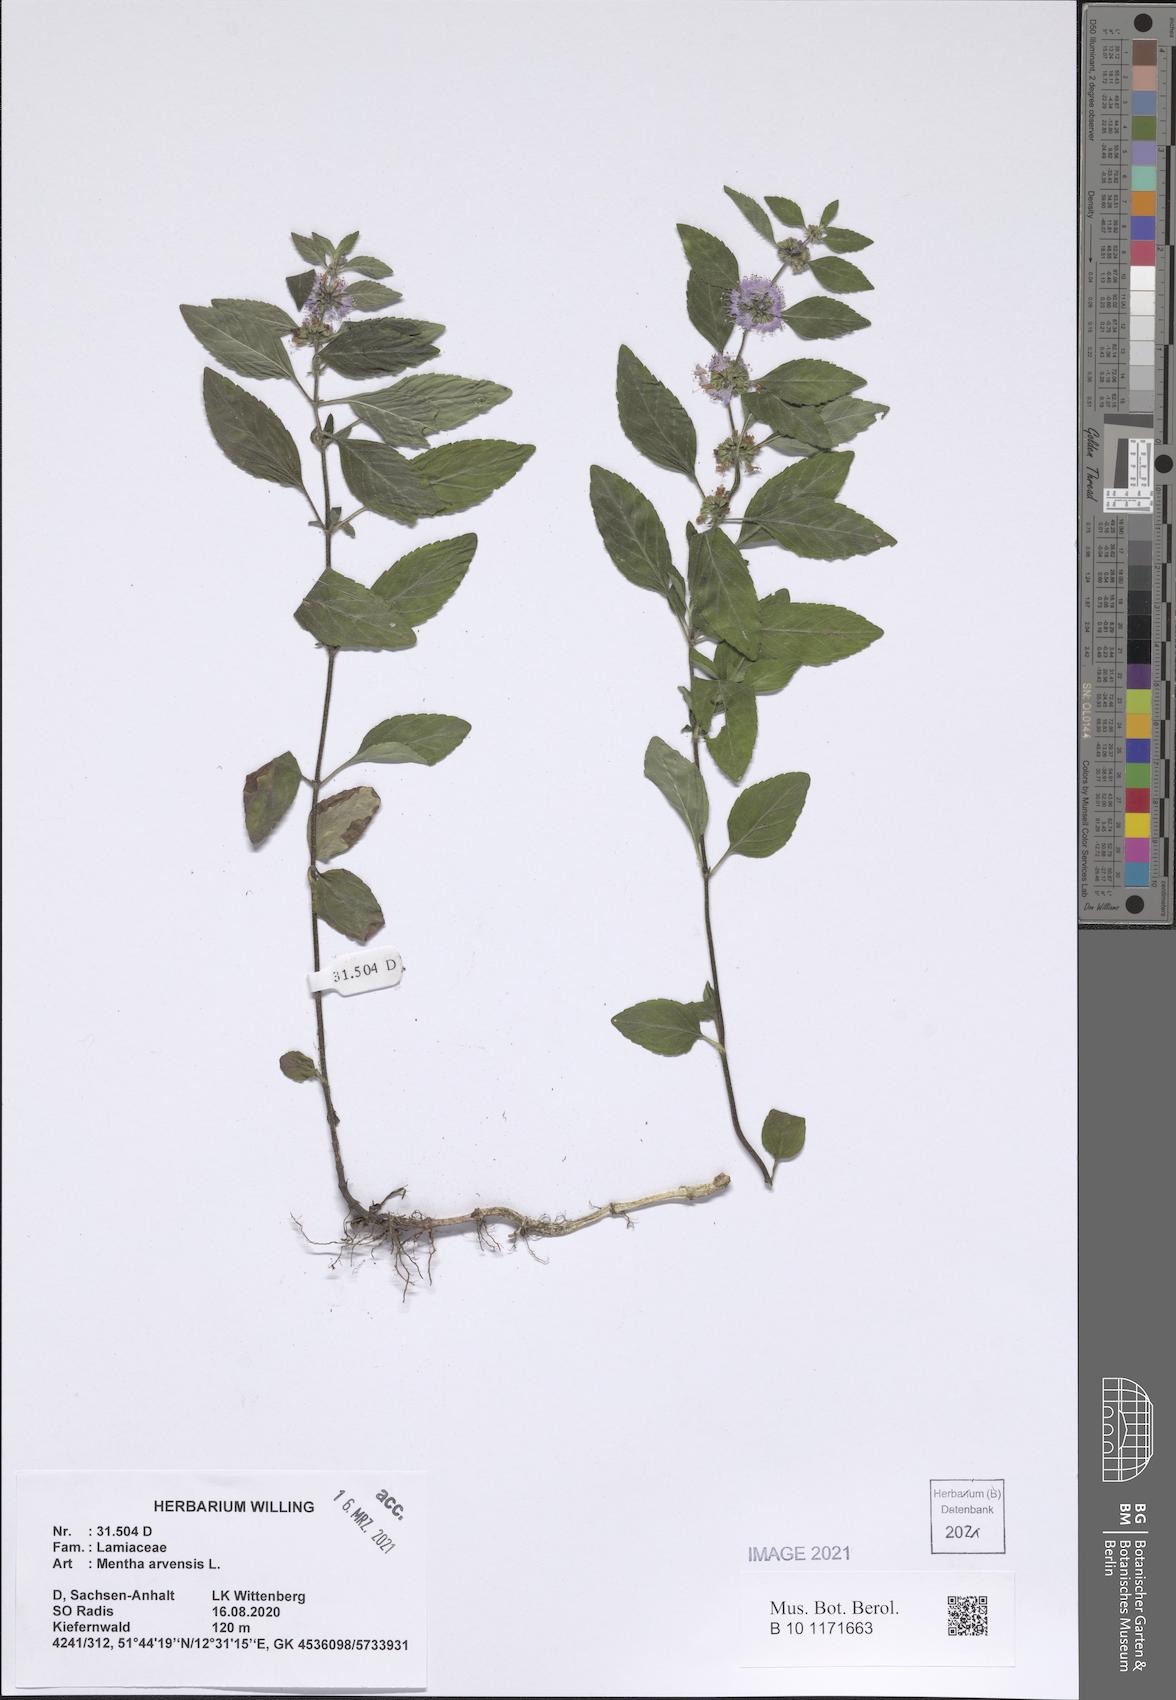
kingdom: Plantae
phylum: Tracheophyta
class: Magnoliopsida
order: Lamiales
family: Lamiaceae
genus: Mentha
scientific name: Mentha arvensis
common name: Corn mint
